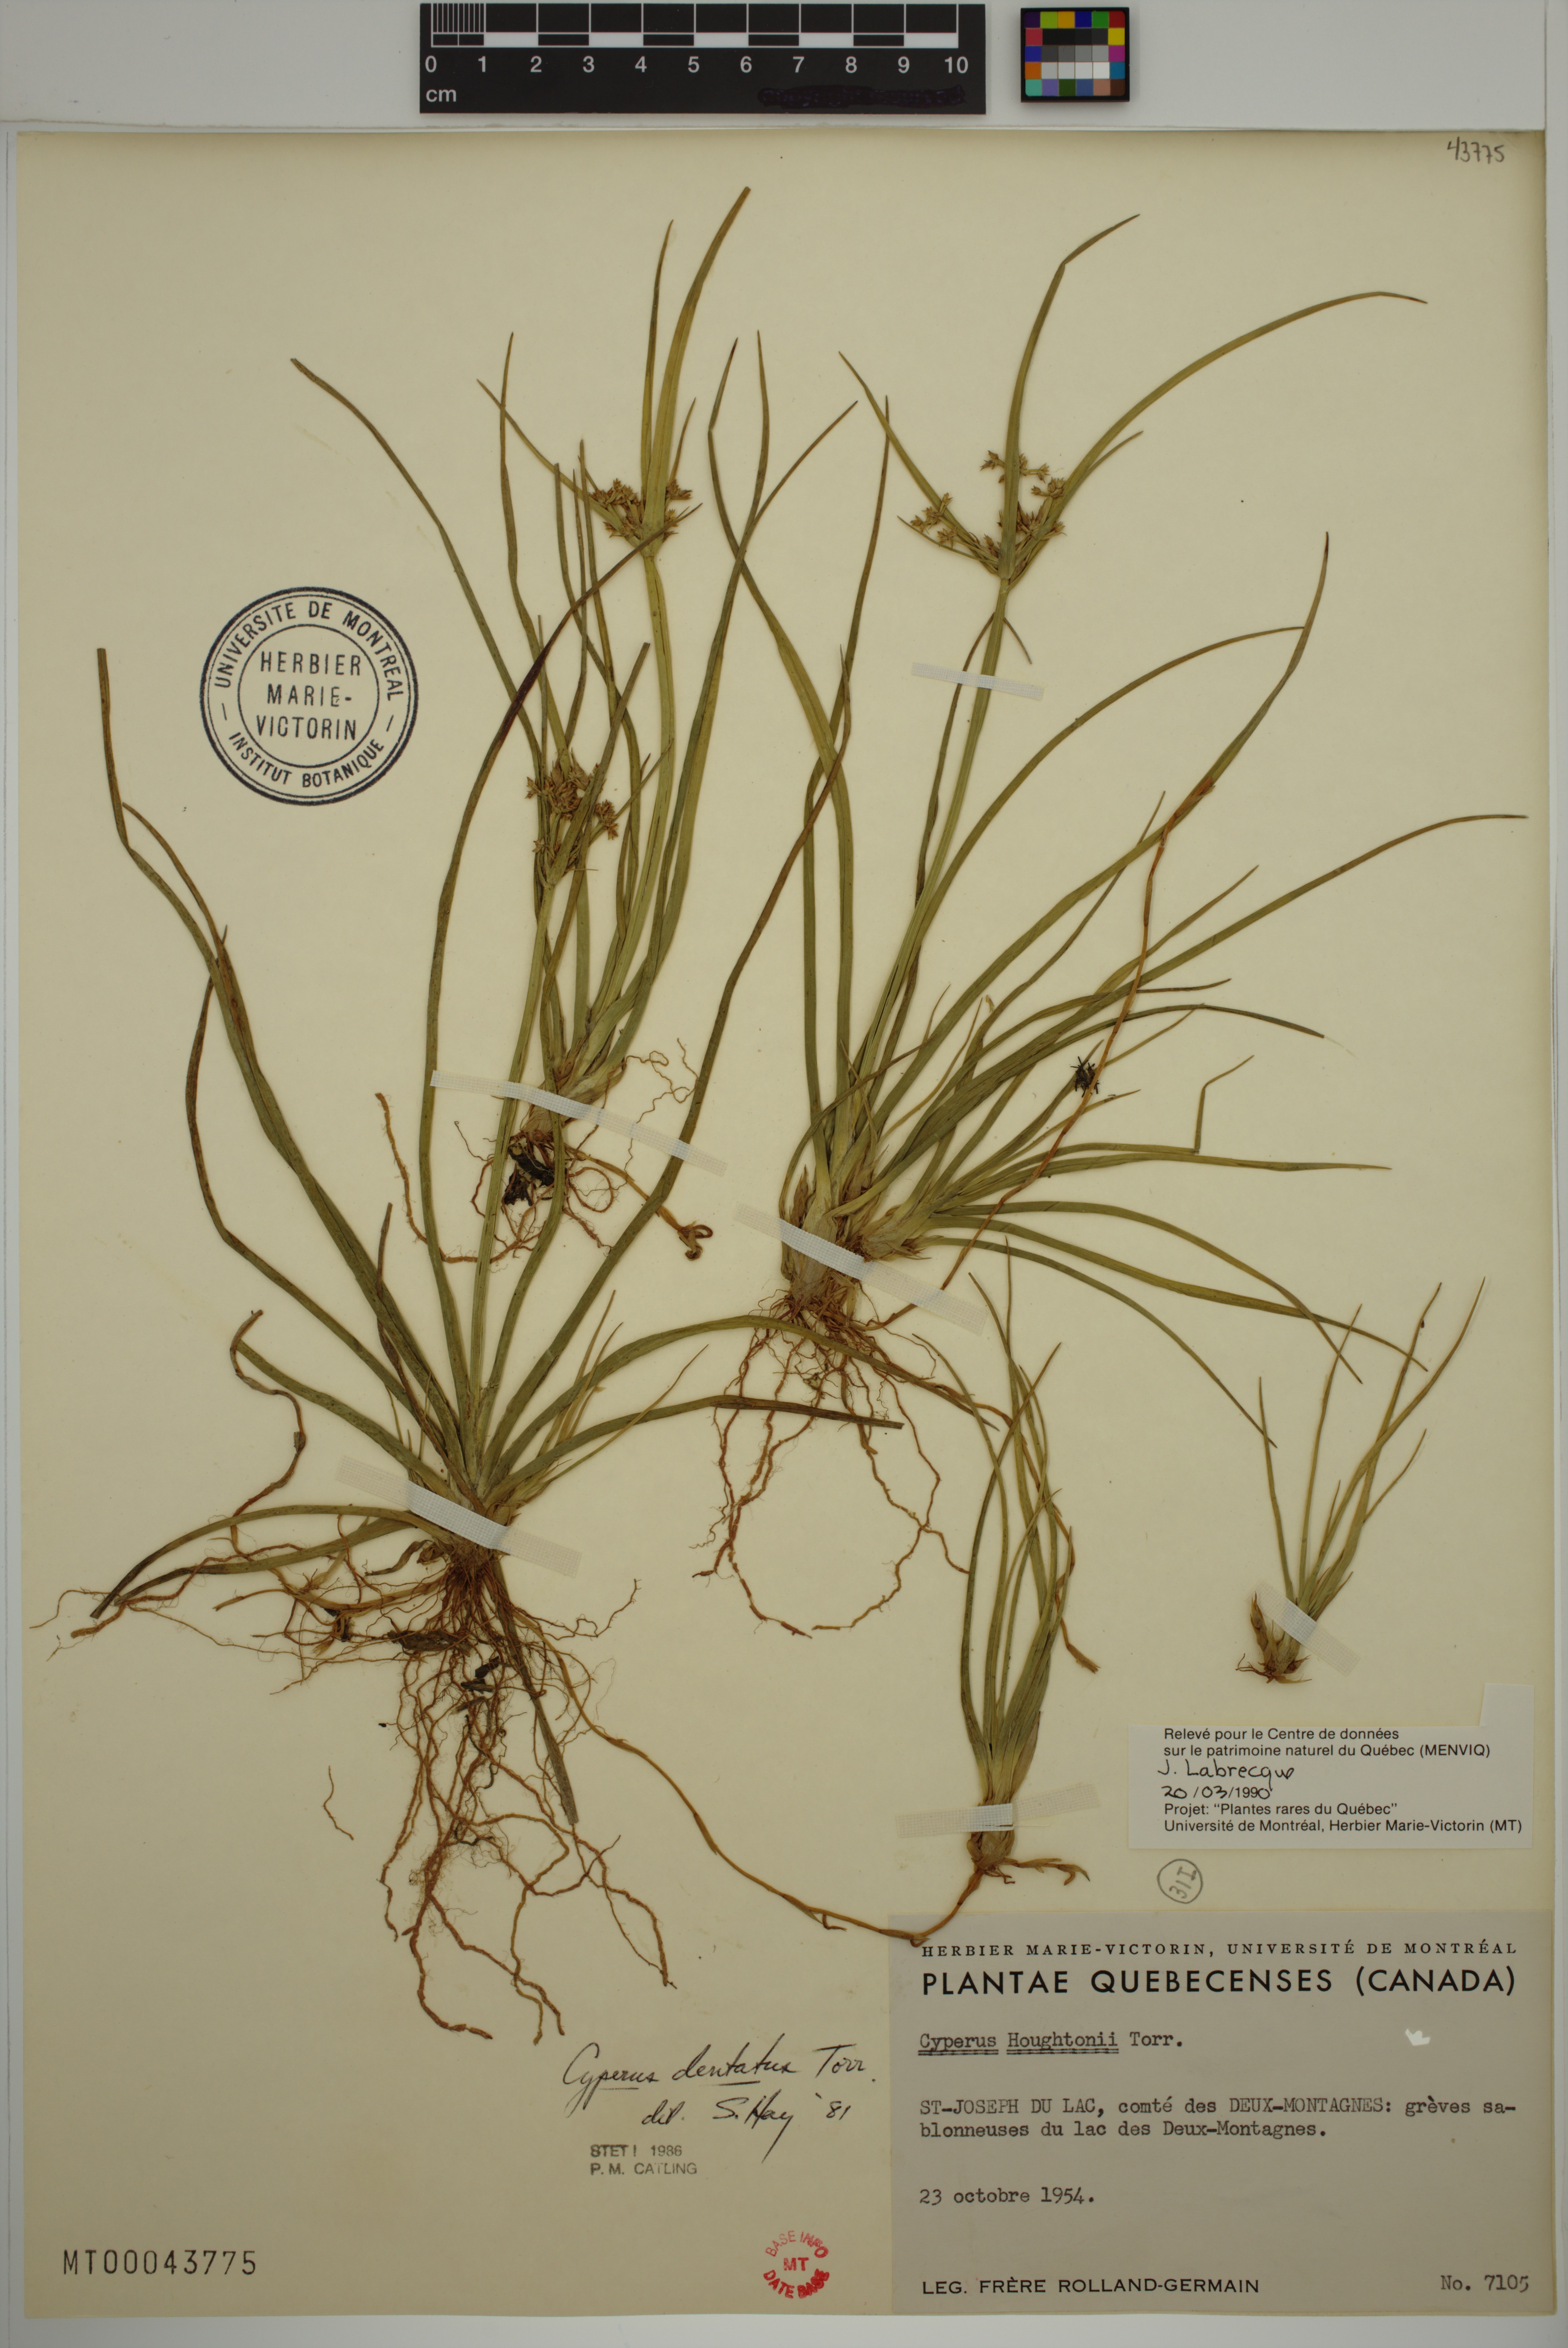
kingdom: Plantae
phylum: Tracheophyta
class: Liliopsida
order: Poales
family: Cyperaceae
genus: Cyperus
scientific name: Cyperus dentatus
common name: Dentate umbrella sedge
